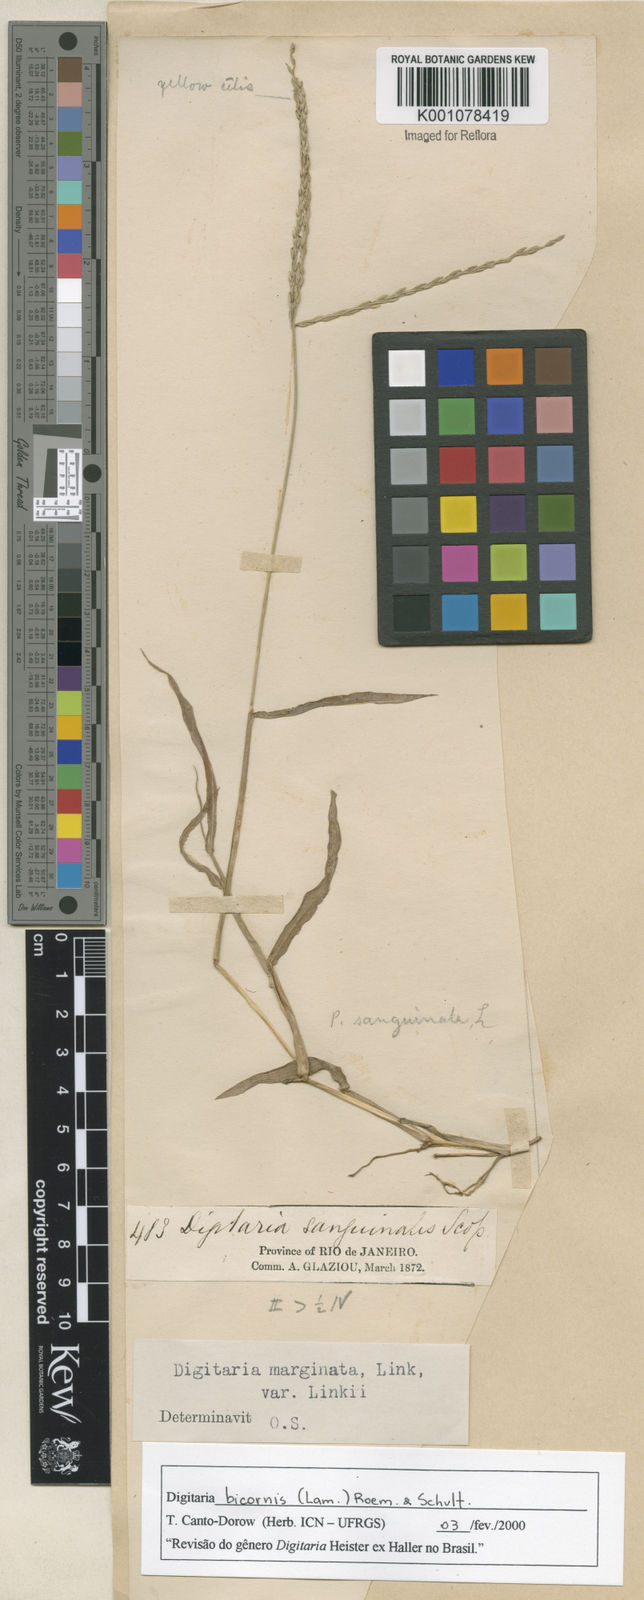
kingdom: Plantae
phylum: Tracheophyta
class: Liliopsida
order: Poales
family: Poaceae
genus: Digitaria
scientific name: Digitaria bicornis
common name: Asian crabgrass
